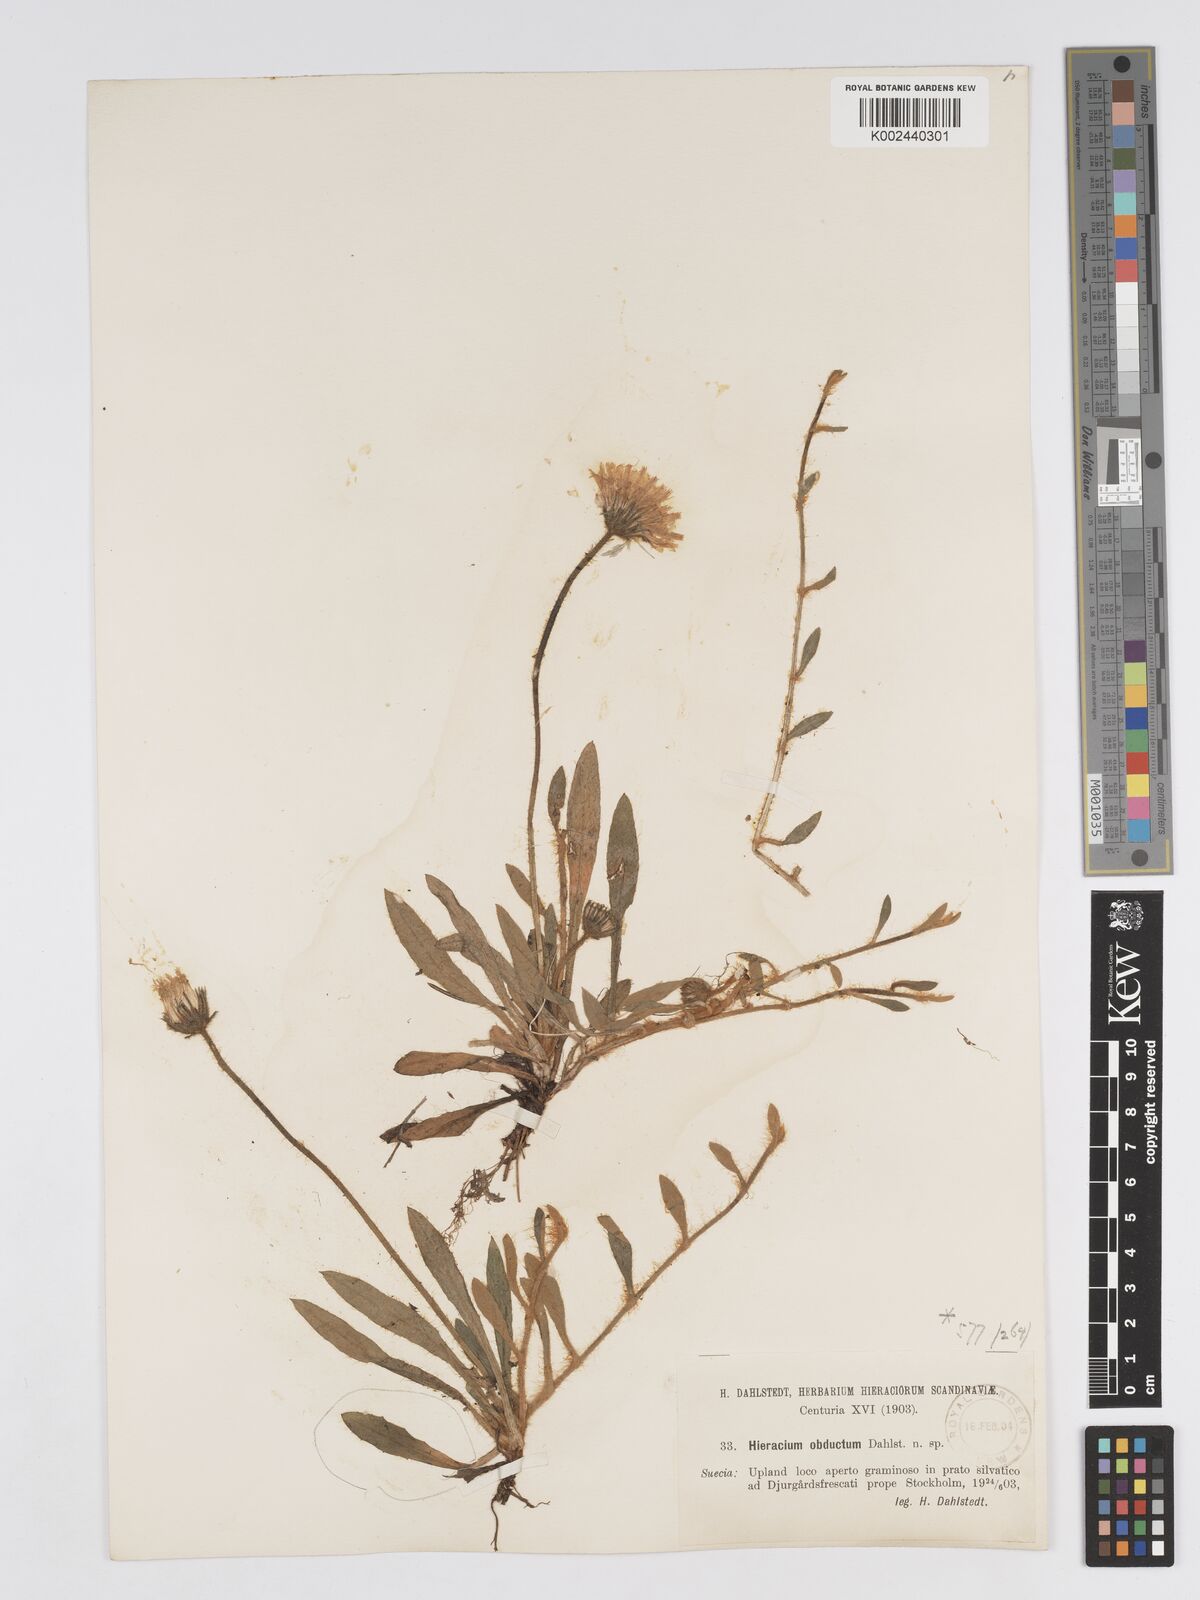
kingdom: Plantae
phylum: Tracheophyta
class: Magnoliopsida
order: Asterales
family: Asteraceae
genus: Pilosella
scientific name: Pilosella officinarum
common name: Mouse-ear hawkweed
